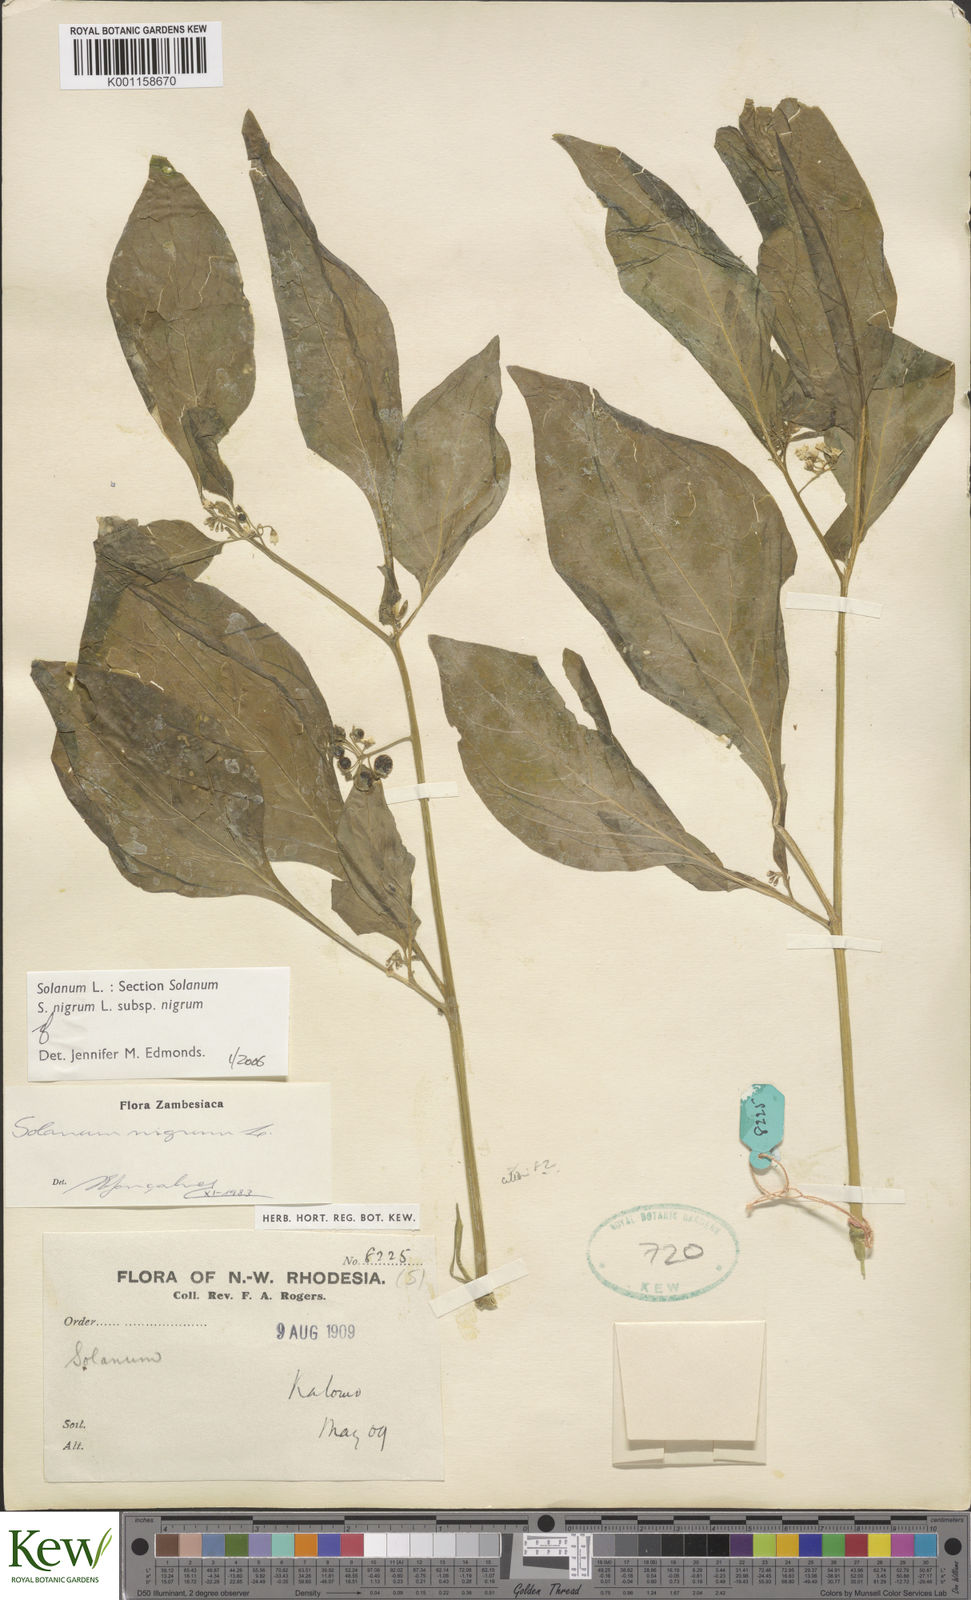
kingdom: Plantae
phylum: Tracheophyta
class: Magnoliopsida
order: Solanales
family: Solanaceae
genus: Solanum
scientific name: Solanum nigrum
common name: Black nightshade
